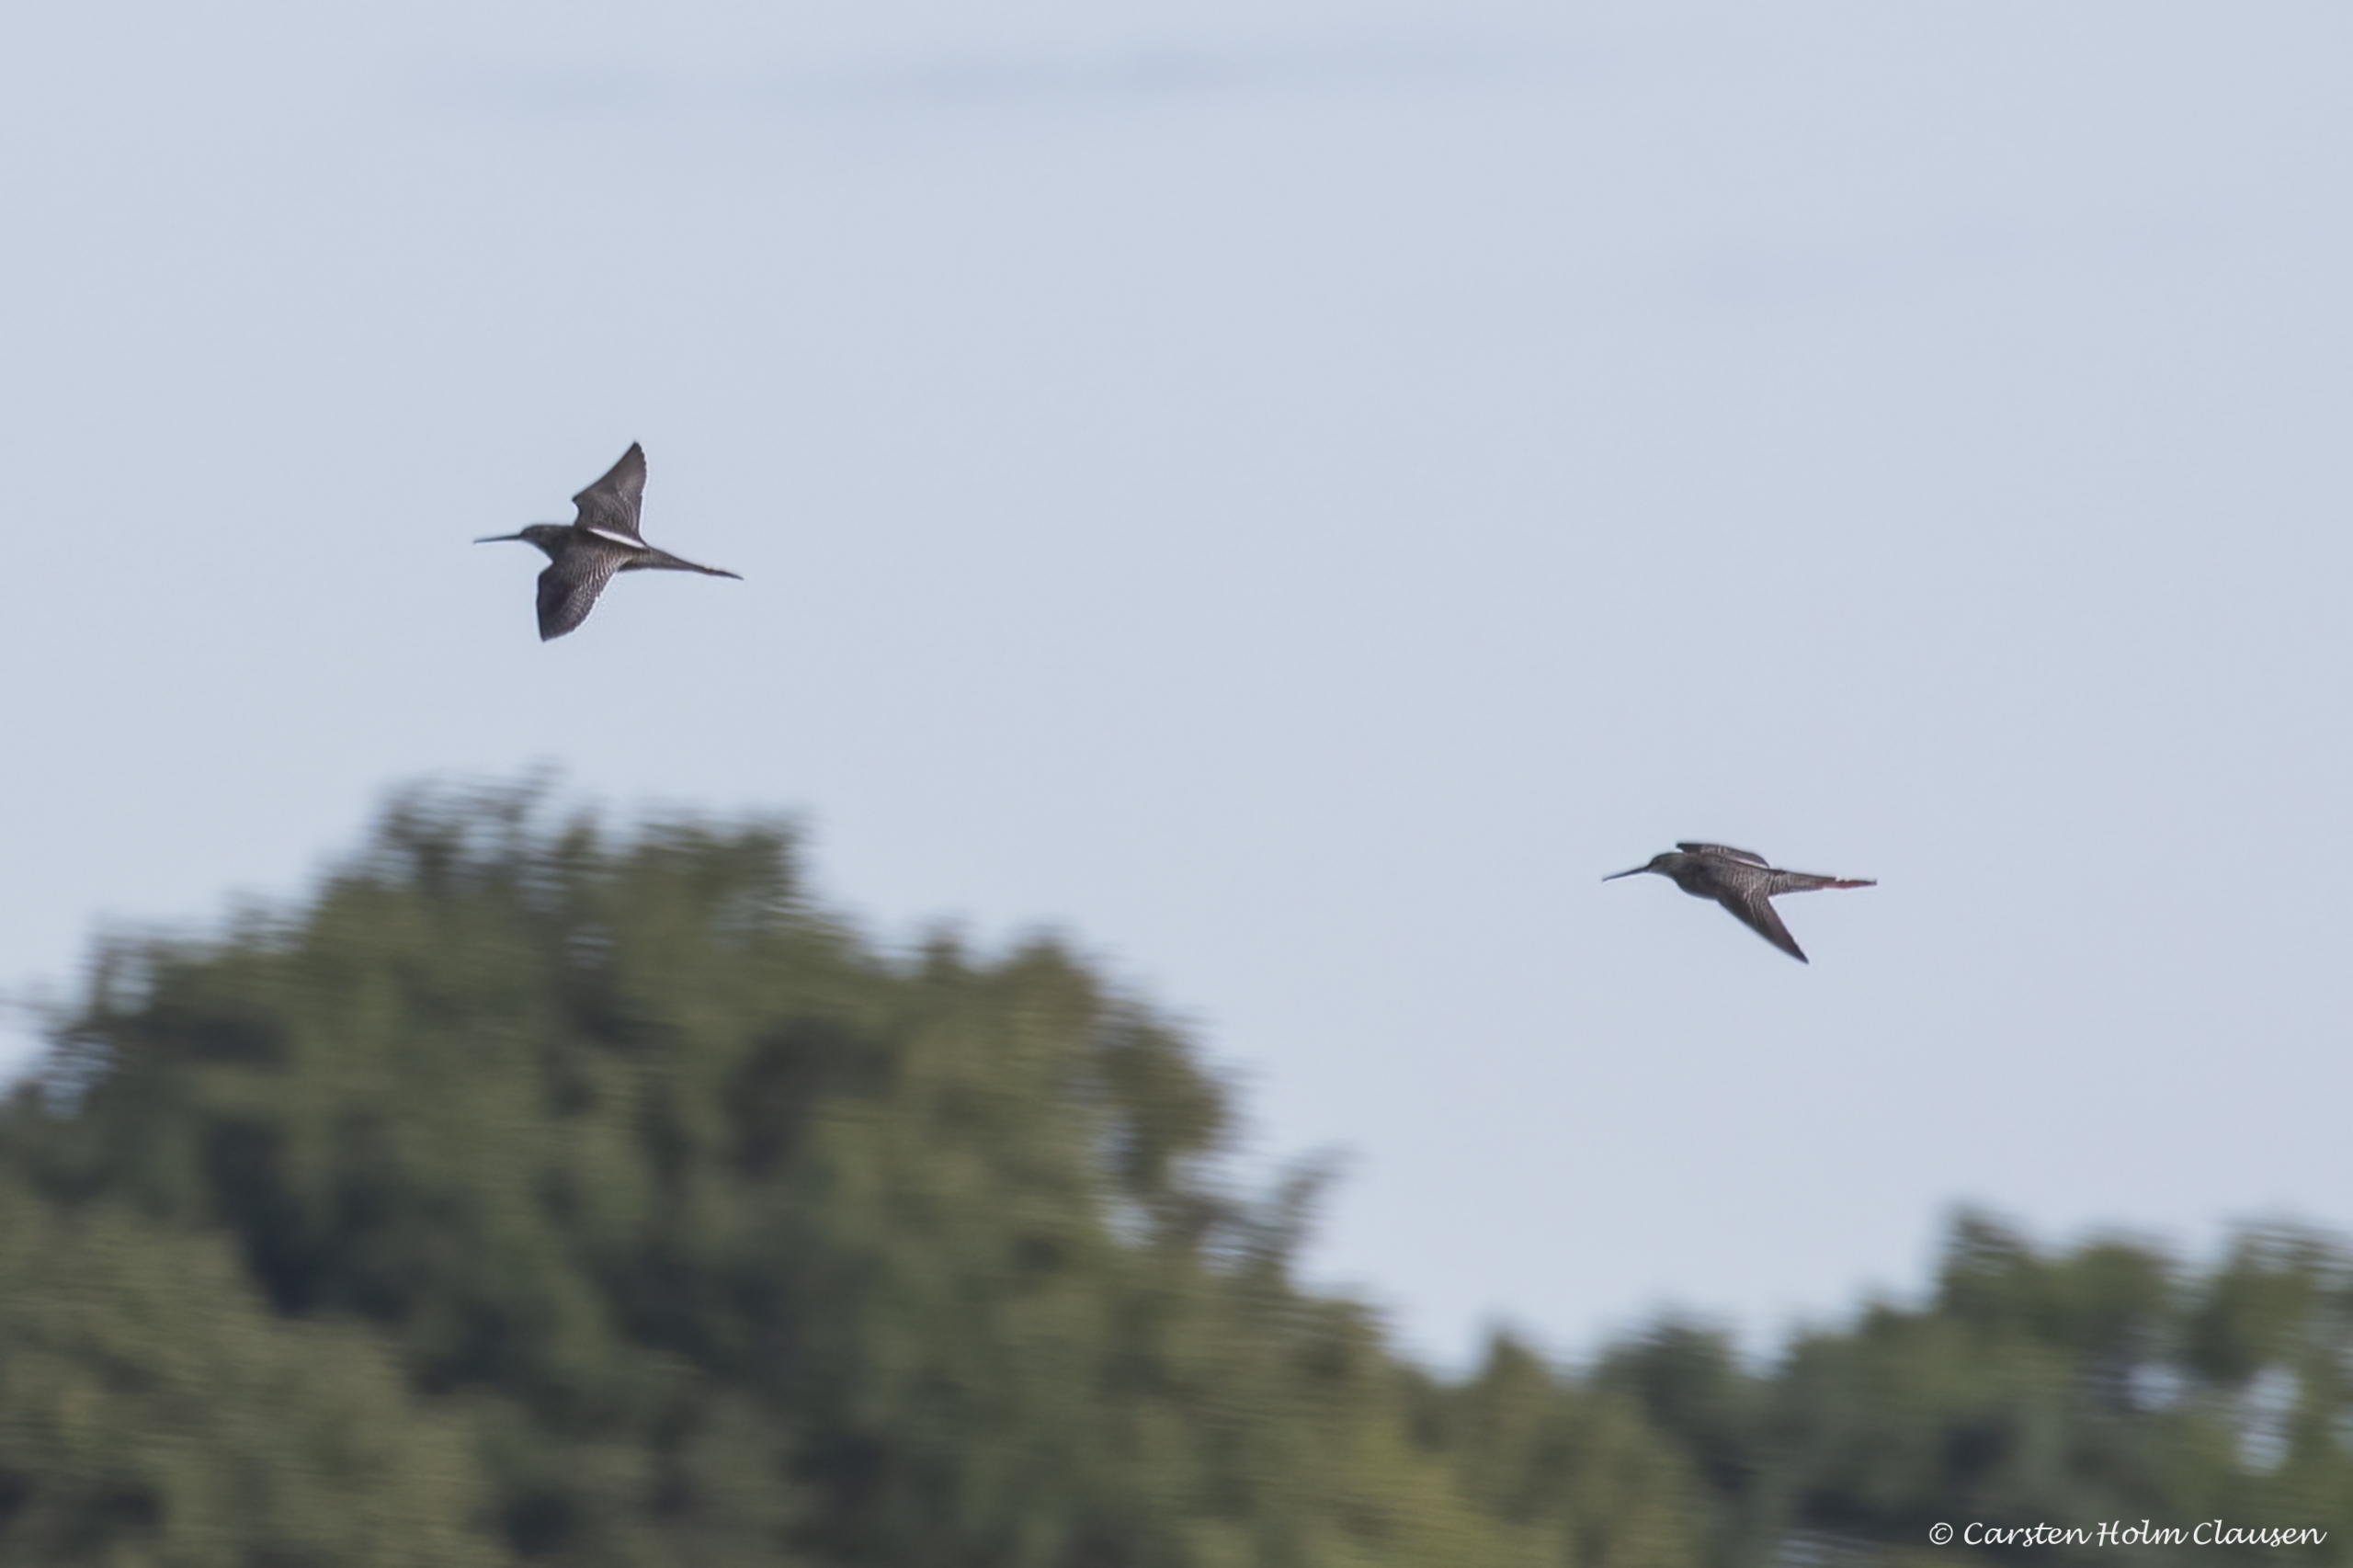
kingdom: Animalia
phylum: Chordata
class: Aves
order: Charadriiformes
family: Scolopacidae
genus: Tringa
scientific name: Tringa erythropus
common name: Sortklire
